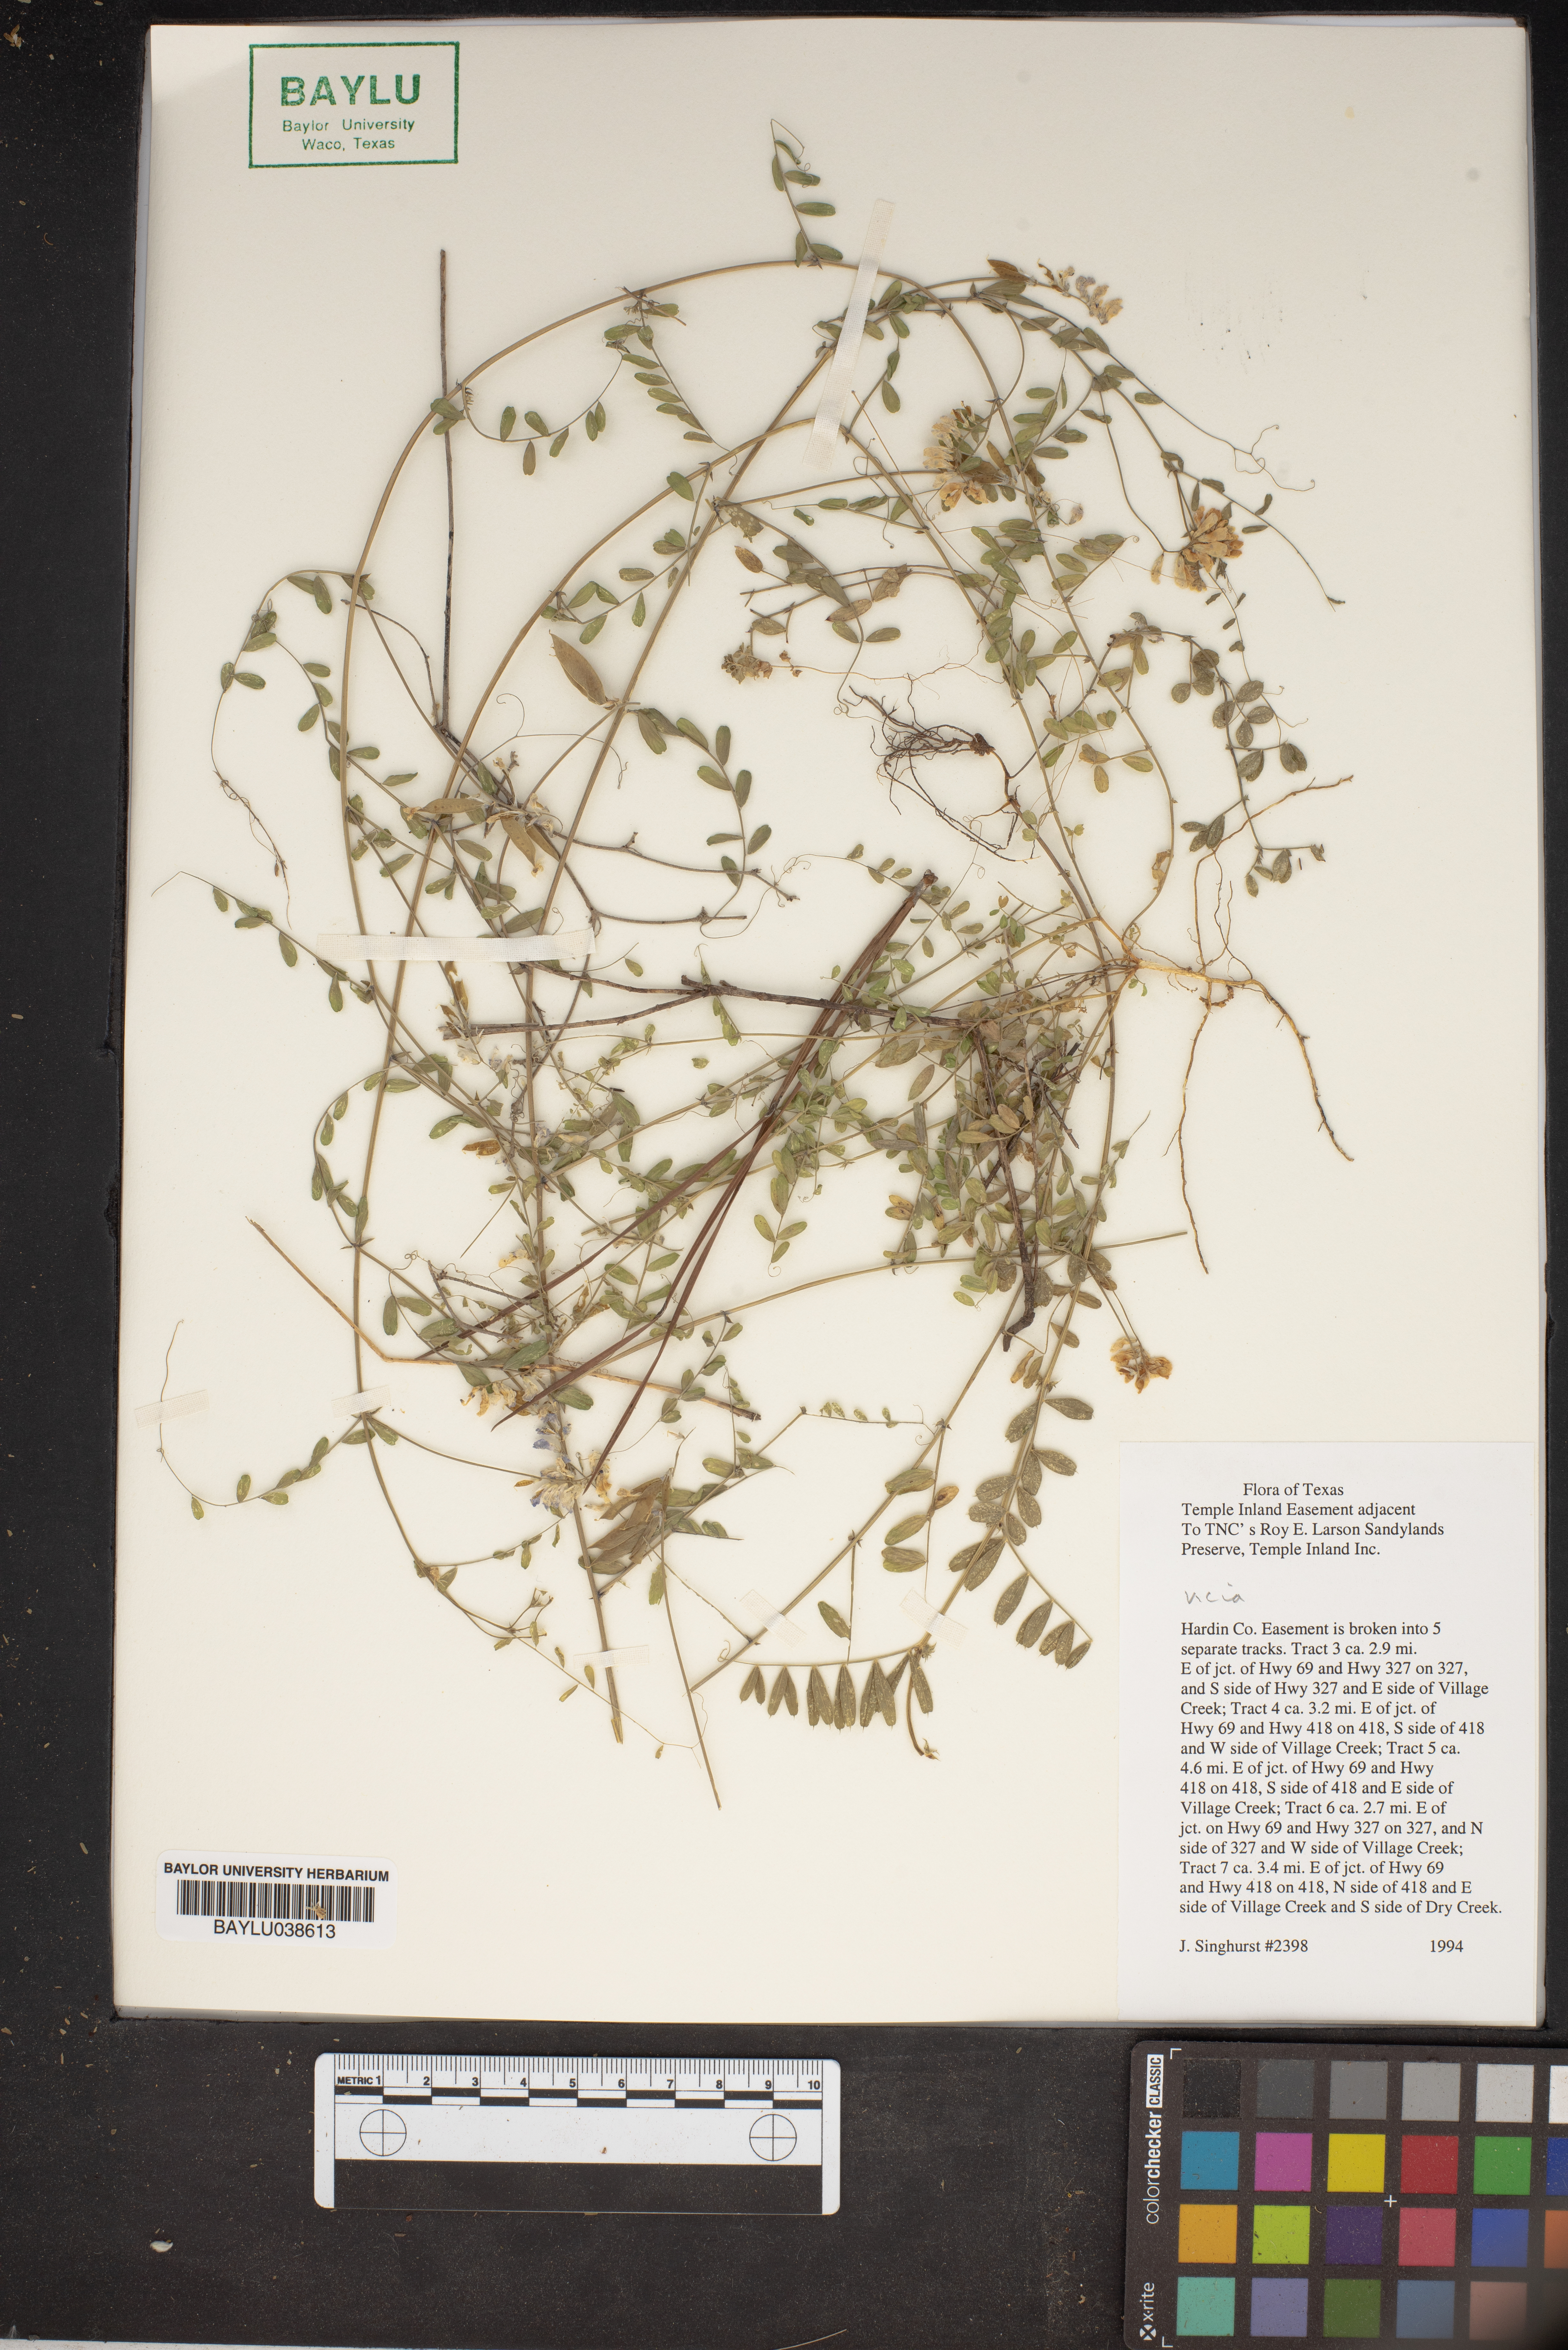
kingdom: Plantae
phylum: Tracheophyta
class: Magnoliopsida
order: Fabales
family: Fabaceae
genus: Vicia
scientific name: Vicia
